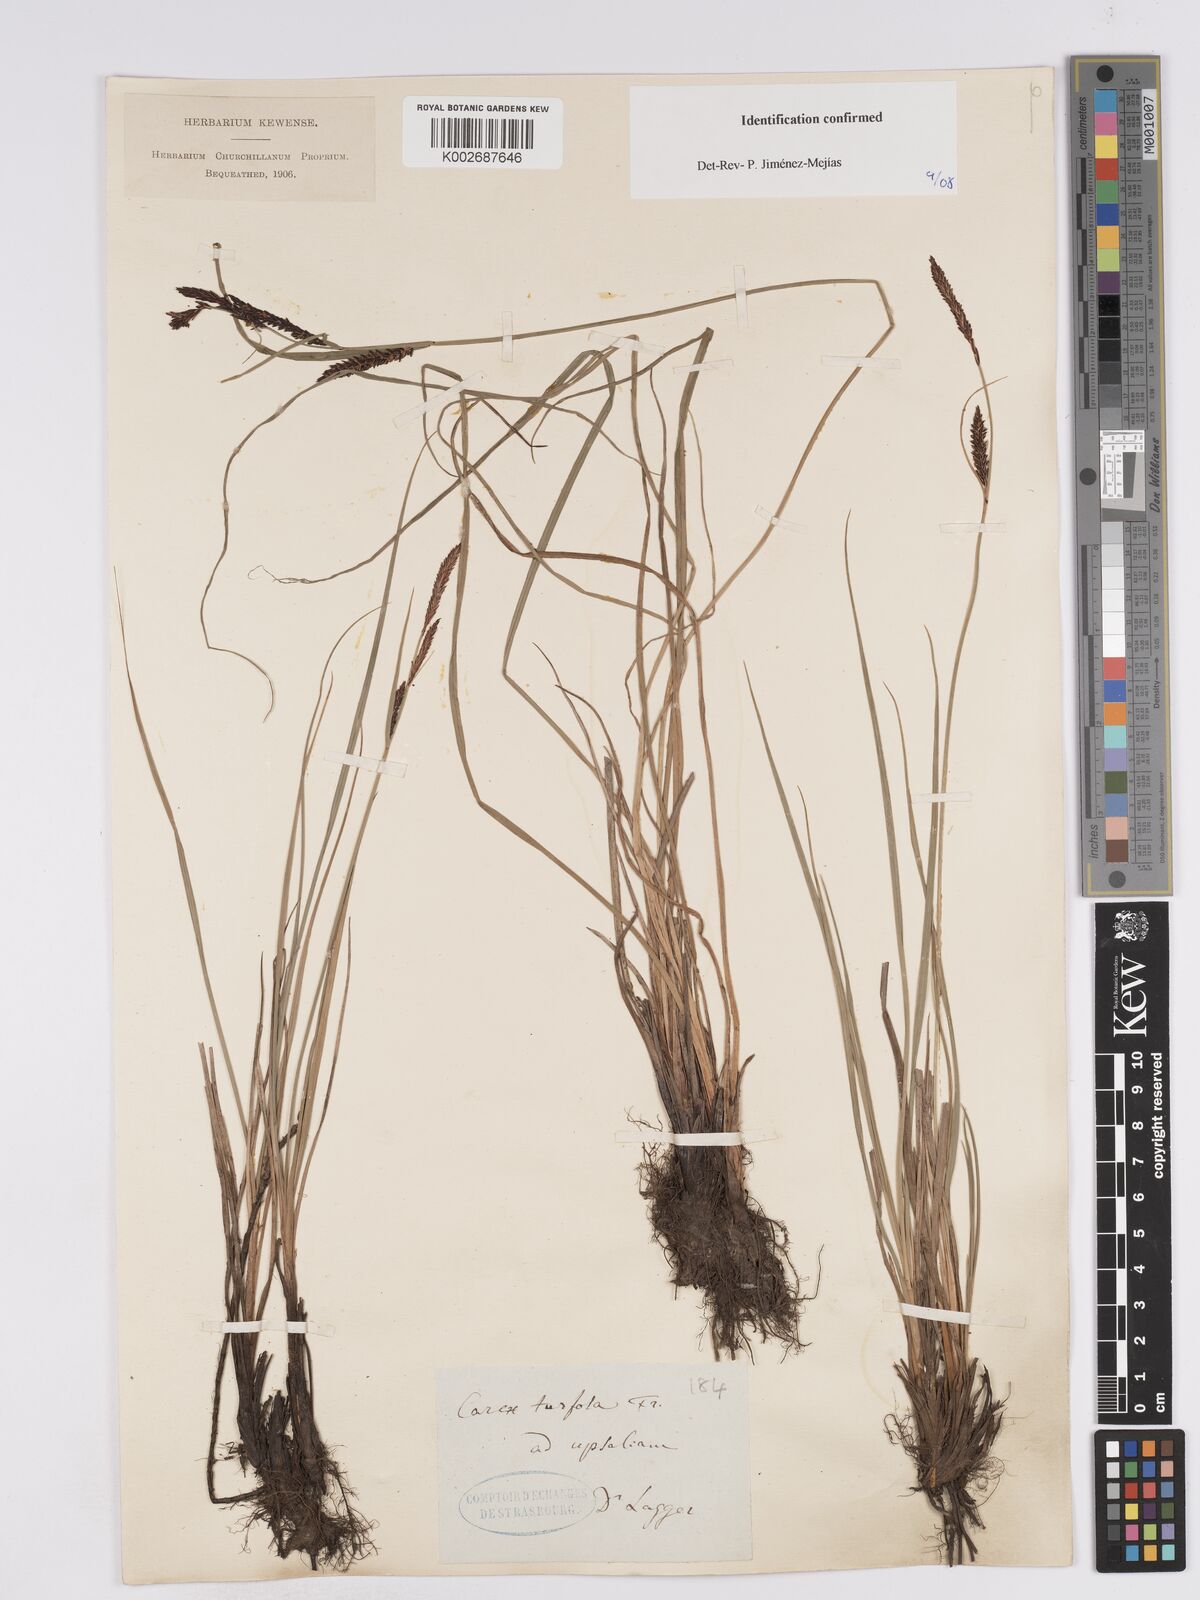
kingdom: Plantae
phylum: Tracheophyta
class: Liliopsida
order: Poales
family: Cyperaceae
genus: Carex
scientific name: Carex nigra
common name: Common sedge
